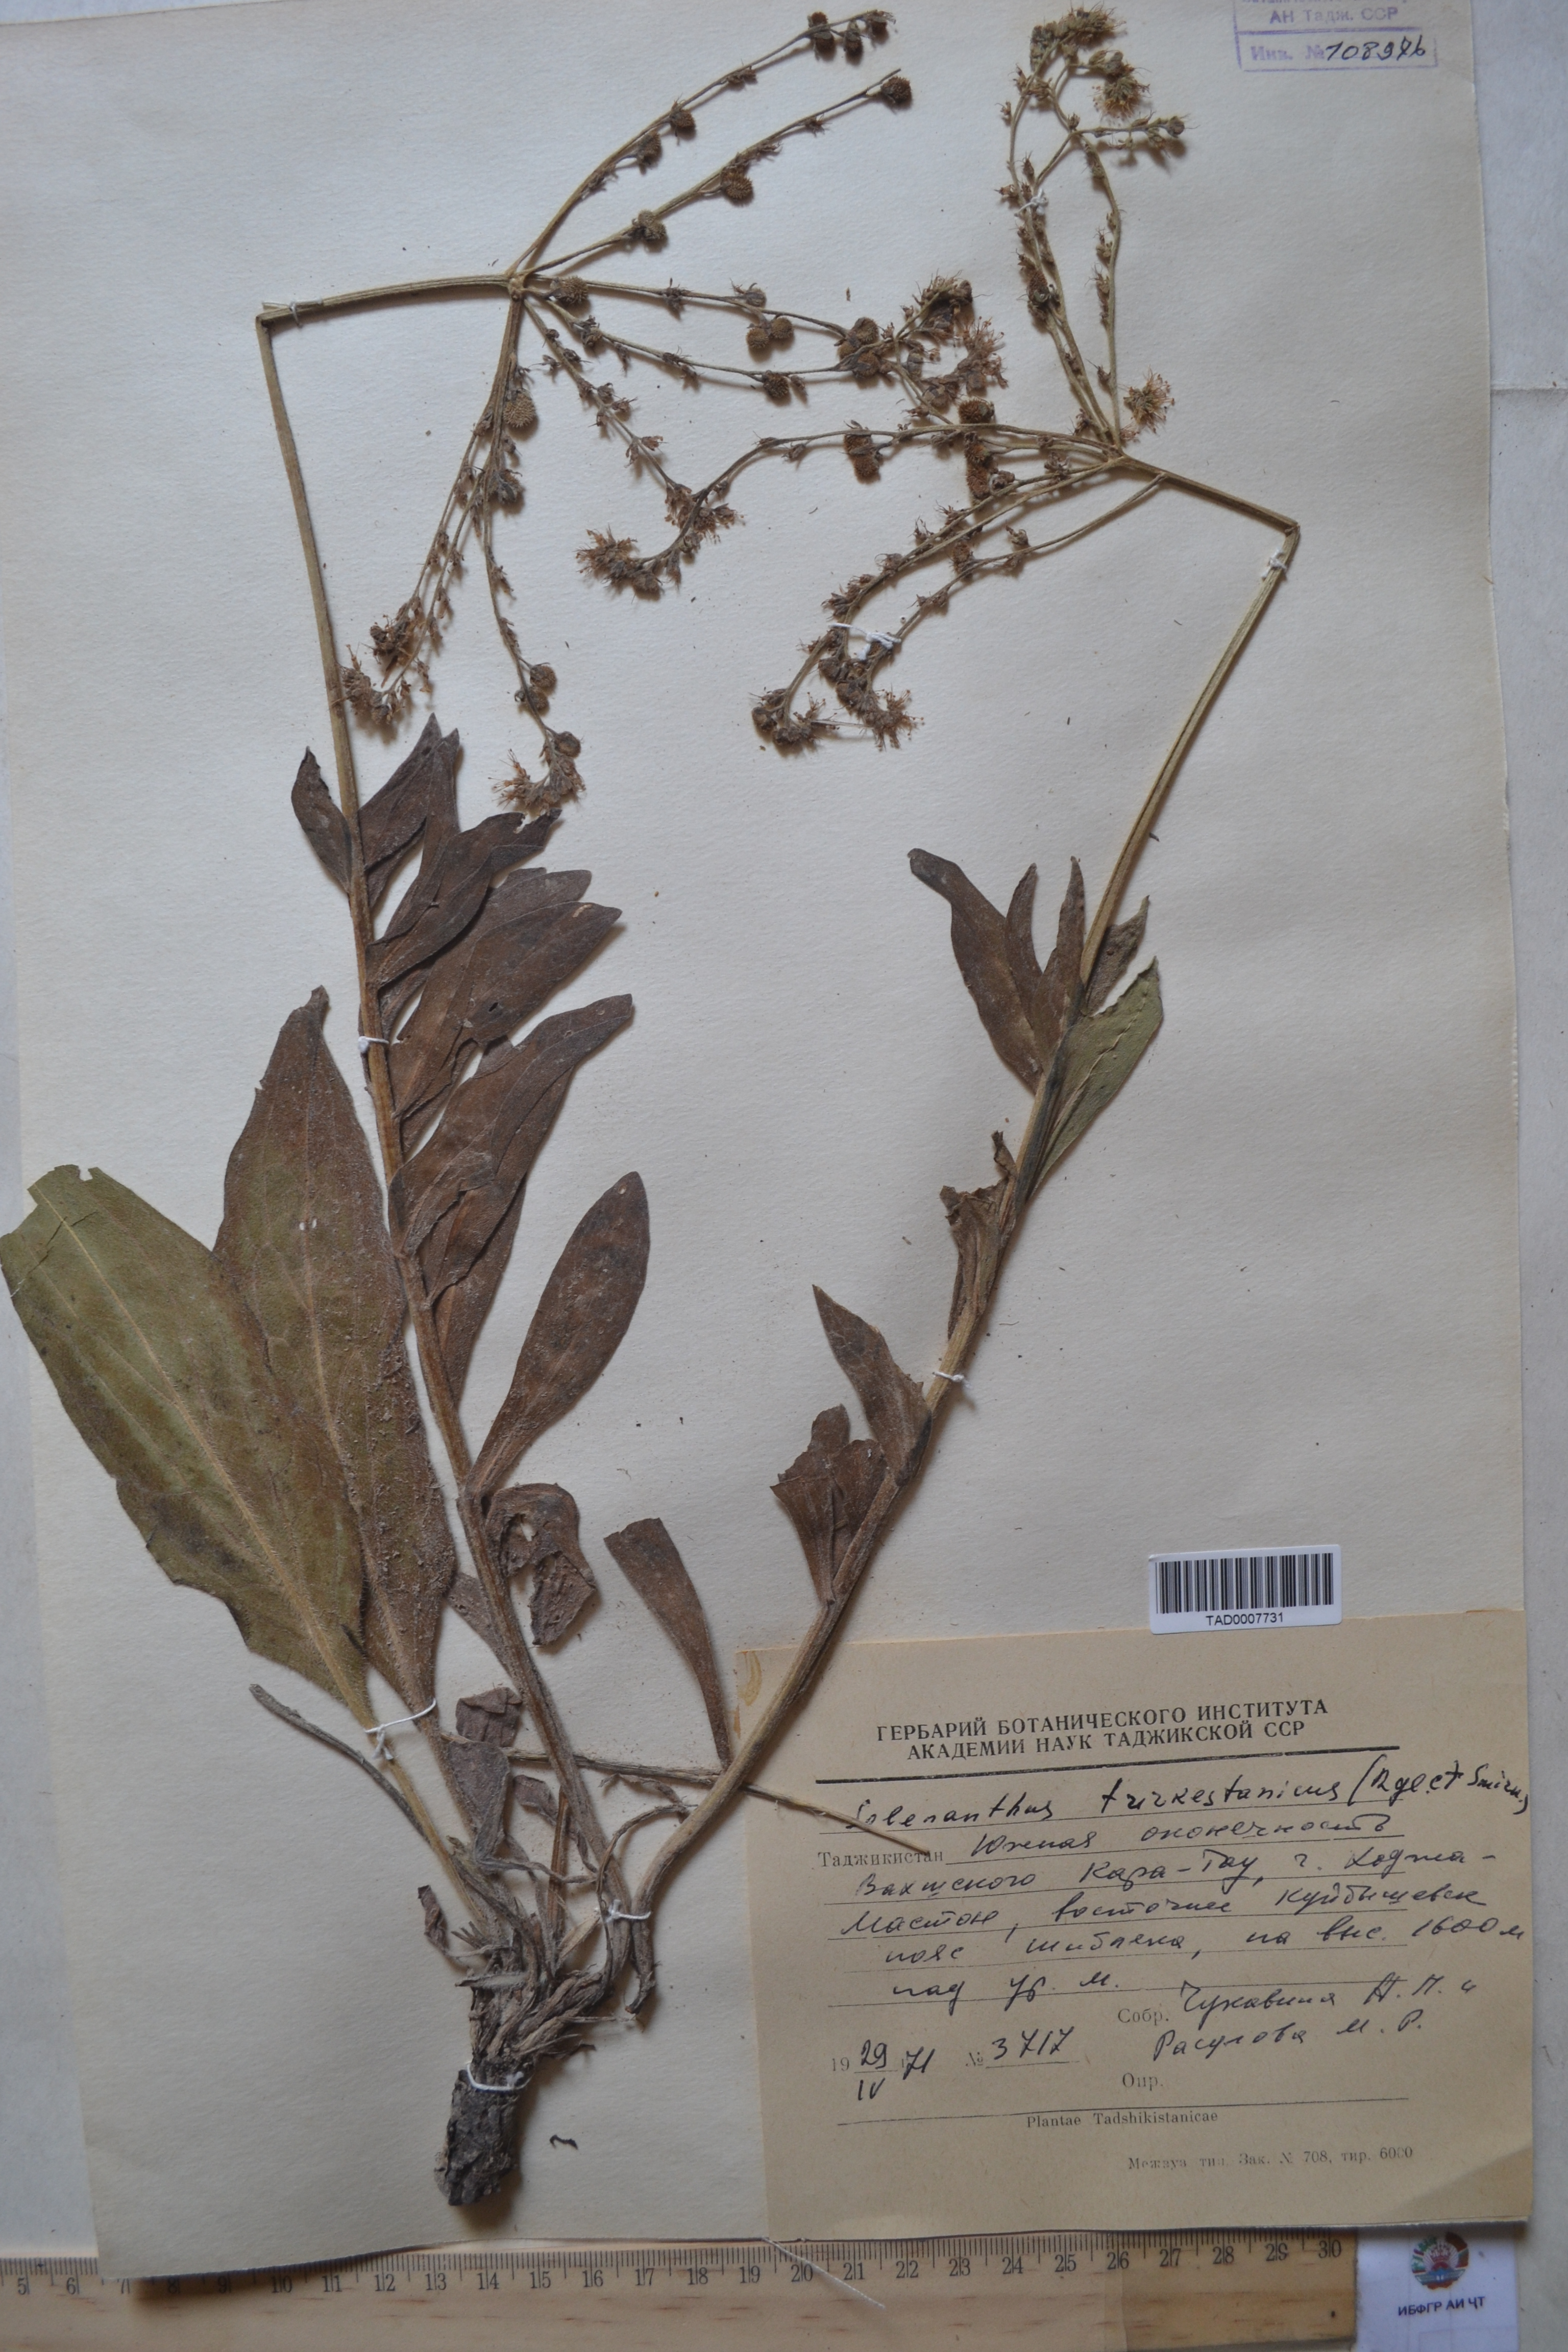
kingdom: Plantae
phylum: Tracheophyta
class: Magnoliopsida
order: Boraginales
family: Boraginaceae
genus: Solenanthus
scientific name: Solenanthus turkestanicus
